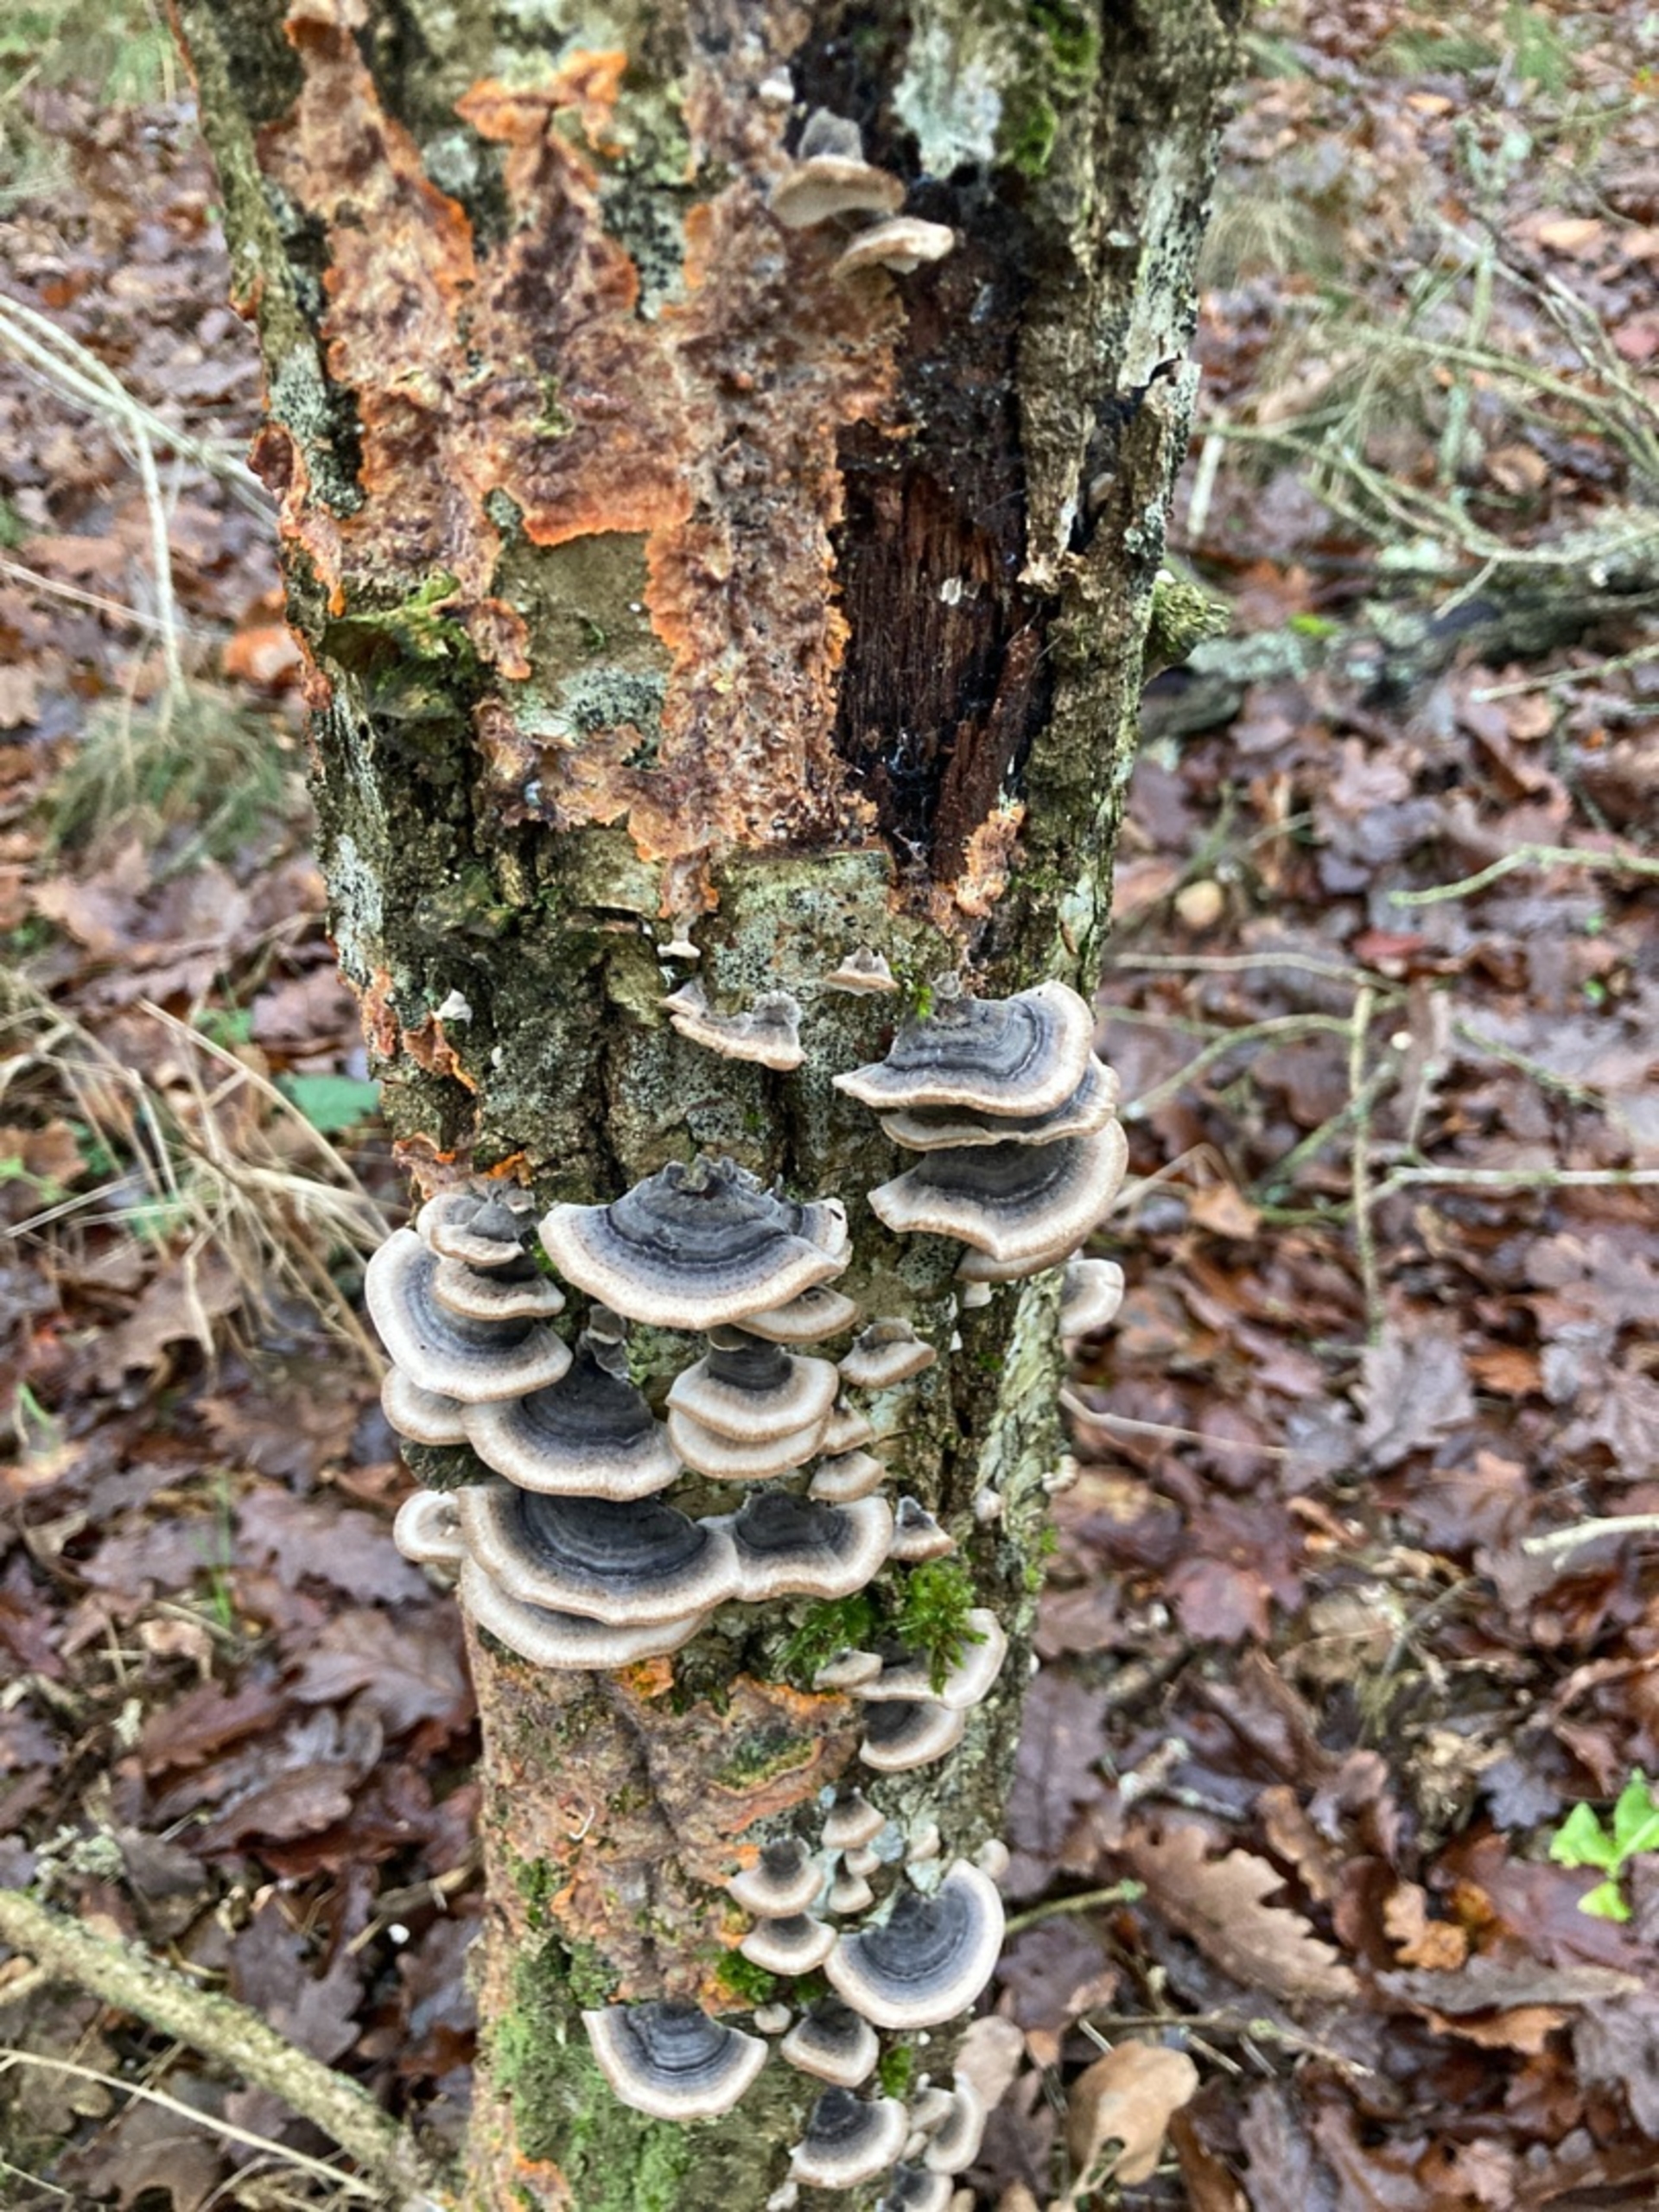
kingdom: Fungi
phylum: Basidiomycota
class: Agaricomycetes
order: Polyporales
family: Polyporaceae
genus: Trametes
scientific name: Trametes versicolor
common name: Broget læderporesvamp
